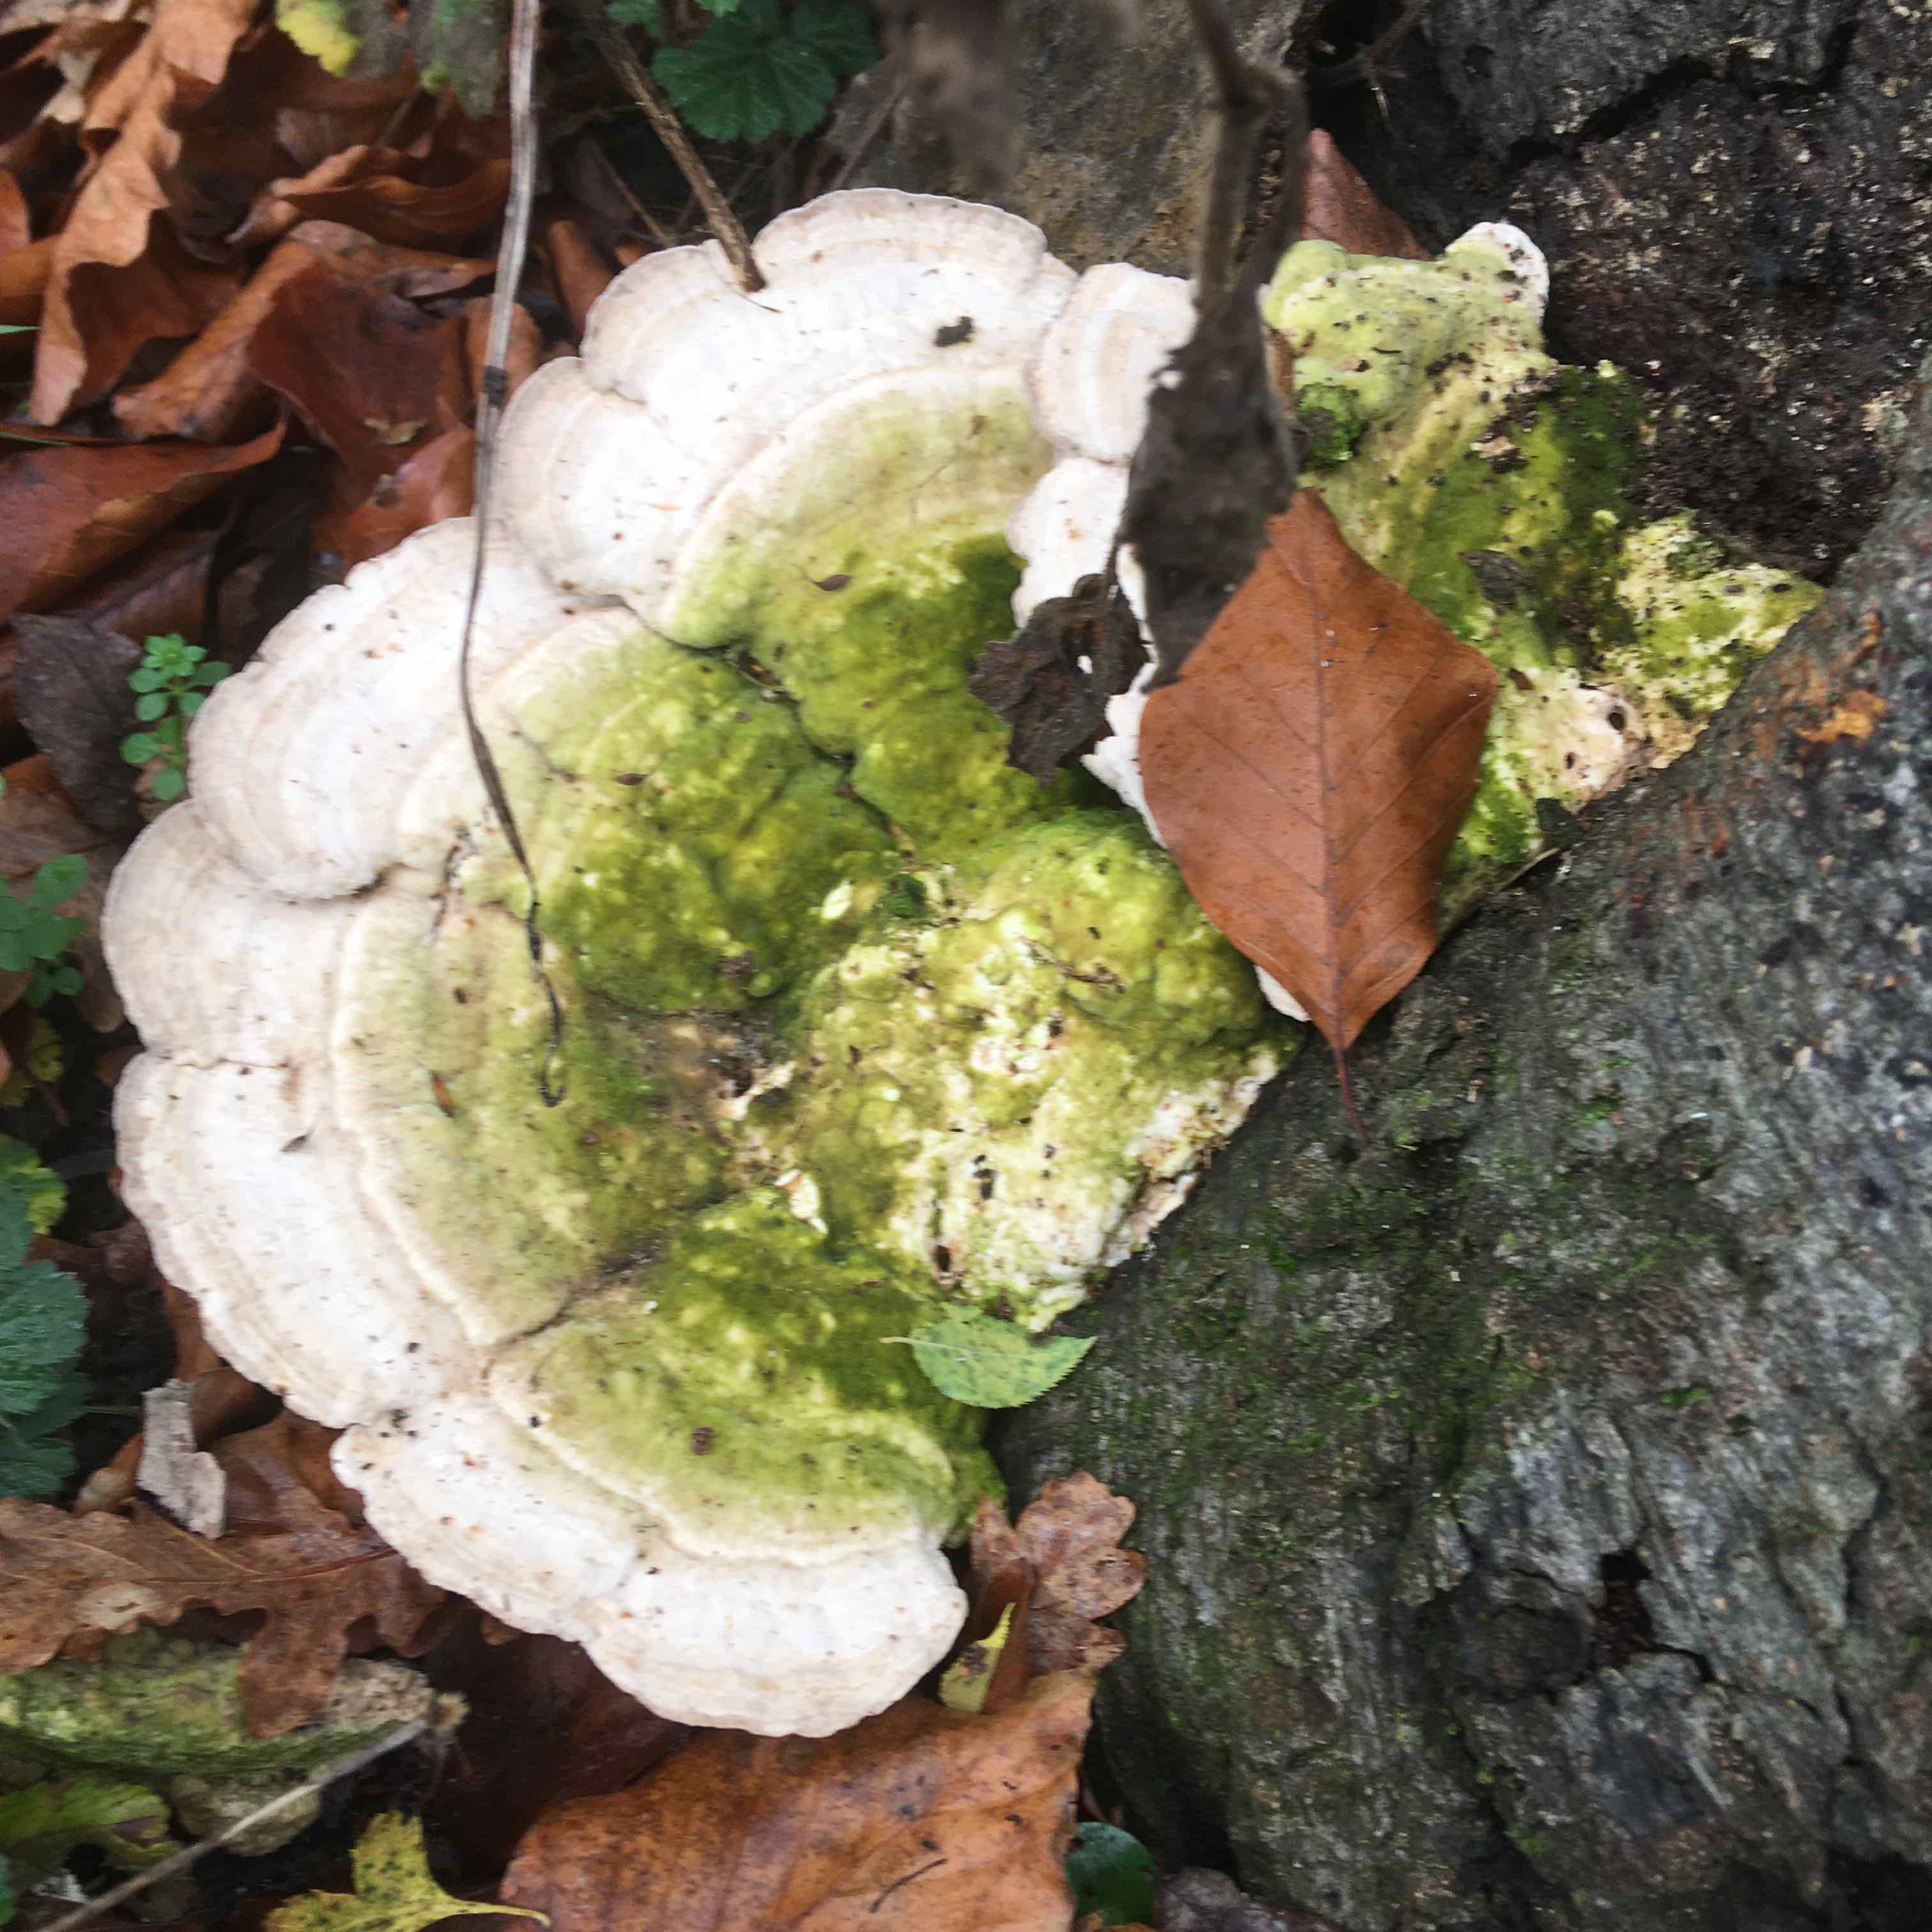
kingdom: Fungi
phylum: Basidiomycota
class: Agaricomycetes
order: Polyporales
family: Polyporaceae
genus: Trametes
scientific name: Trametes gibbosa
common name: puklet læderporesvamp
